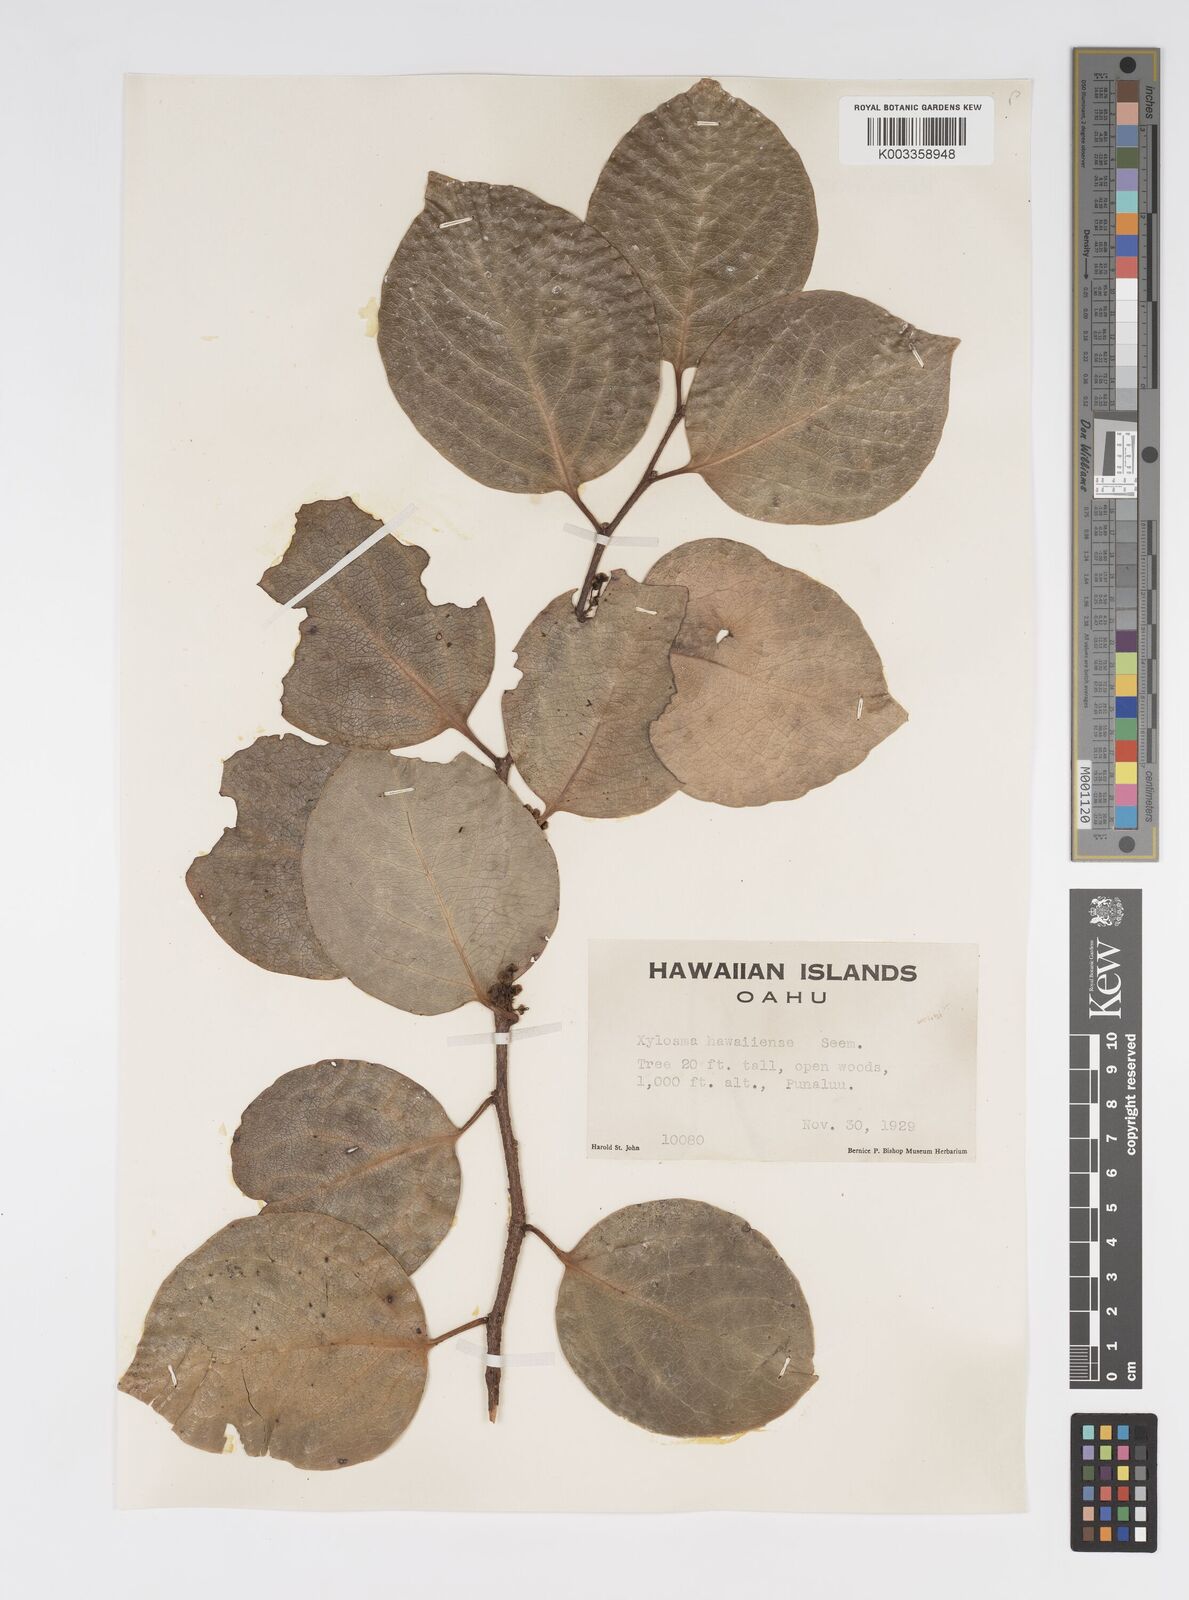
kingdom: Plantae
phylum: Tracheophyta
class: Magnoliopsida
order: Malpighiales
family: Salicaceae
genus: Xylosma
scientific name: Xylosma hawaiense
